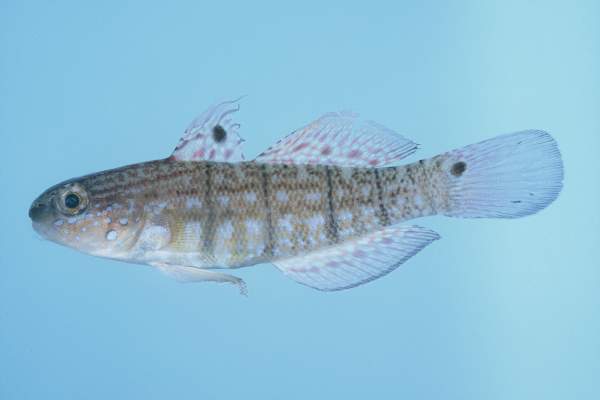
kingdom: Animalia
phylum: Chordata
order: Perciformes
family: Gobiidae
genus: Amblygobius
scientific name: Amblygobius semicinctus
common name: Halfbarred goby
